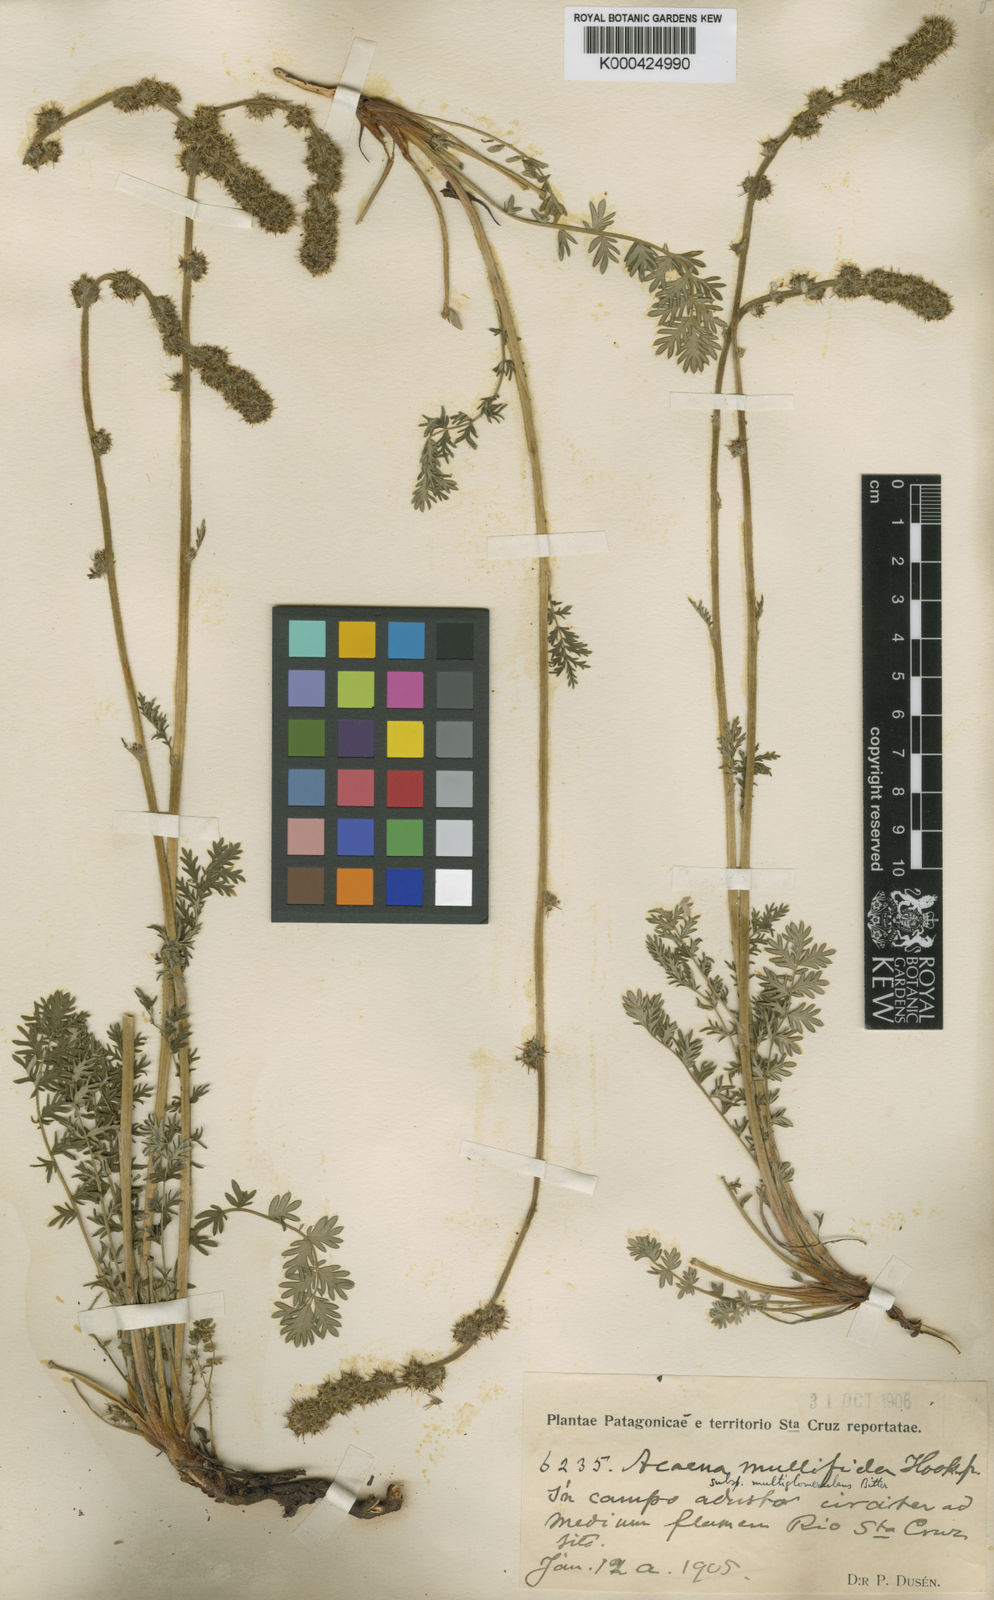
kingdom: Plantae
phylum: Tracheophyta
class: Magnoliopsida
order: Rosales
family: Rosaceae
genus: Acaena
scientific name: Acaena pinnatifida
